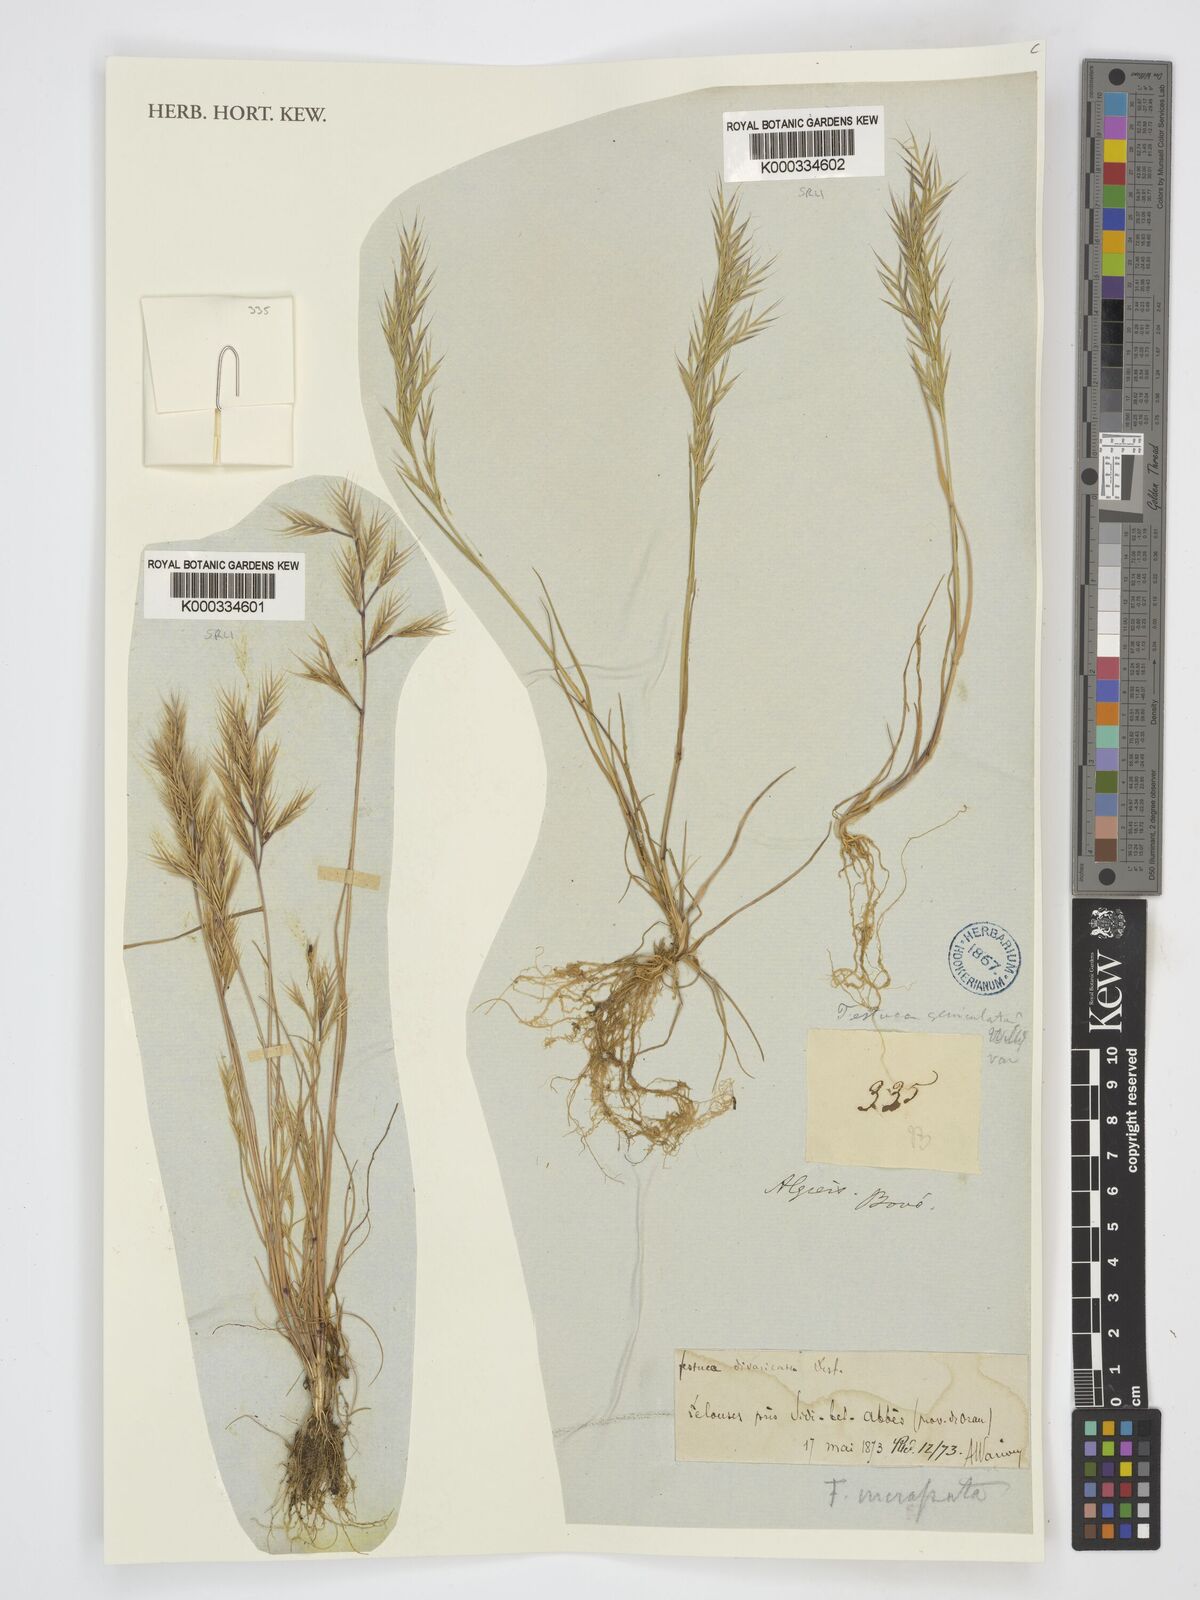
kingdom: Plantae
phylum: Tracheophyta
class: Liliopsida
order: Poales
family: Poaceae
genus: Vulpiella
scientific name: Vulpiella stipoides
